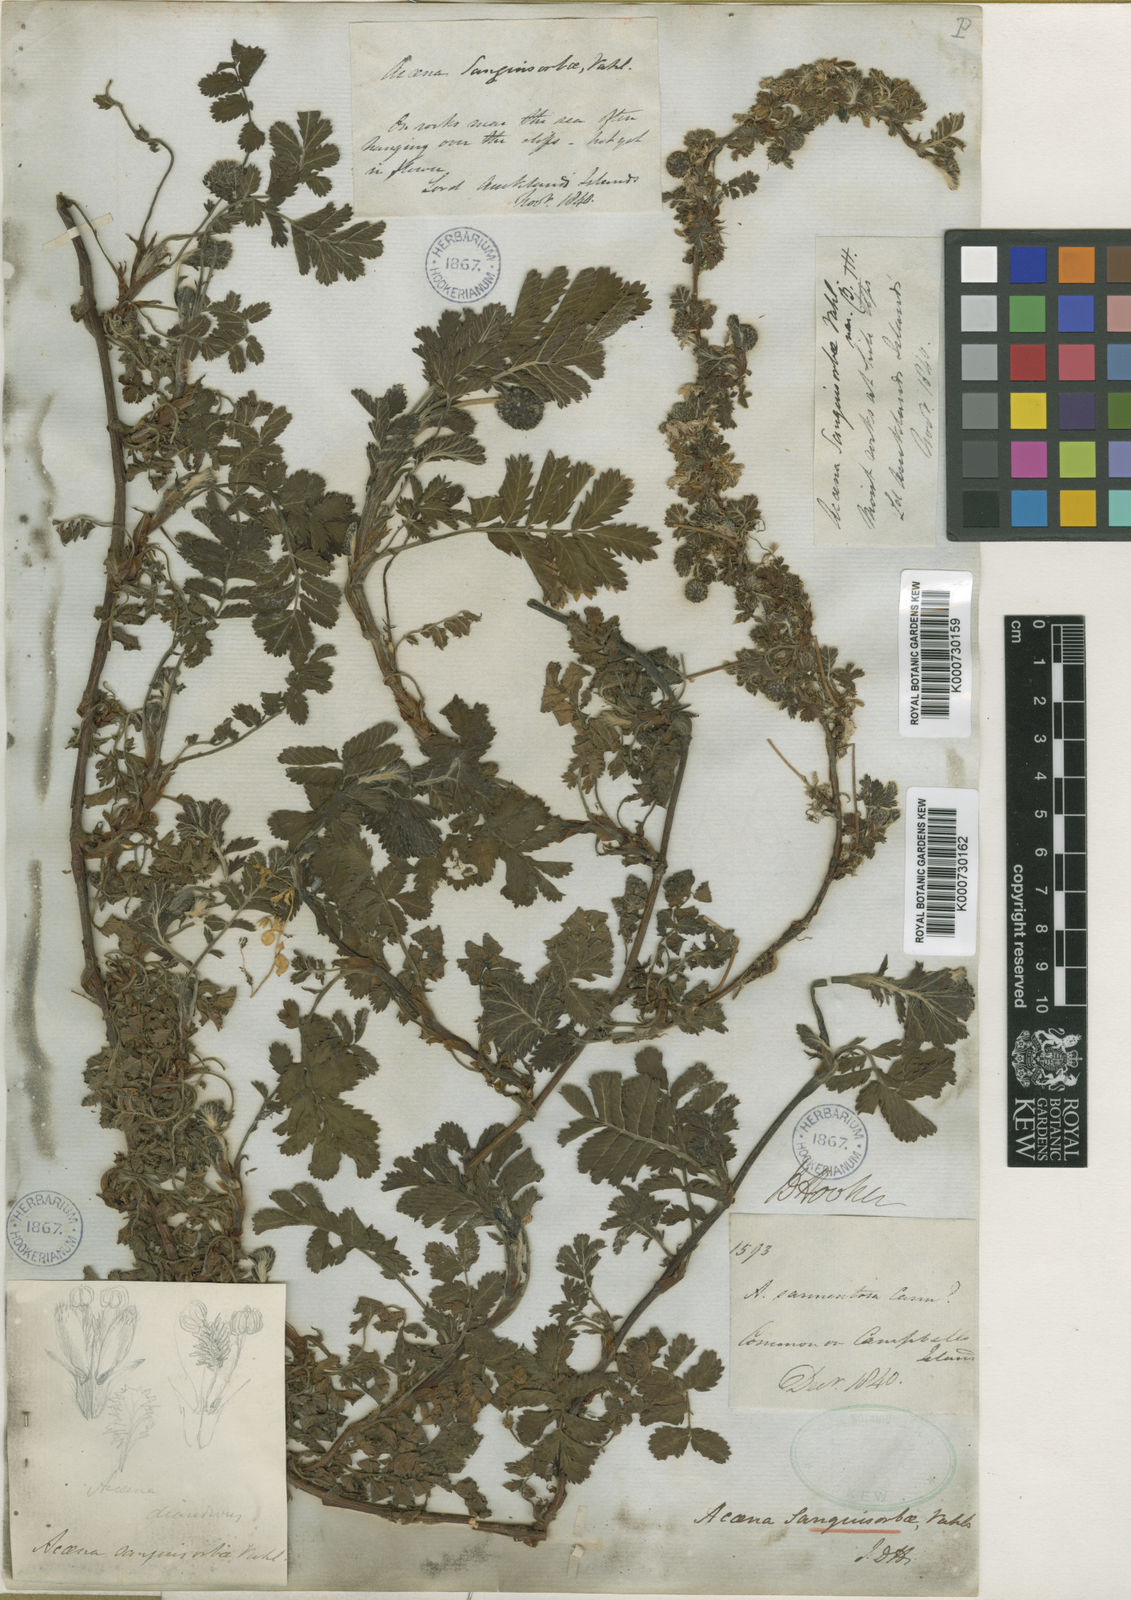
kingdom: Plantae
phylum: Tracheophyta
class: Magnoliopsida
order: Rosales
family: Rosaceae
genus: Acaena
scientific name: Acaena minor
